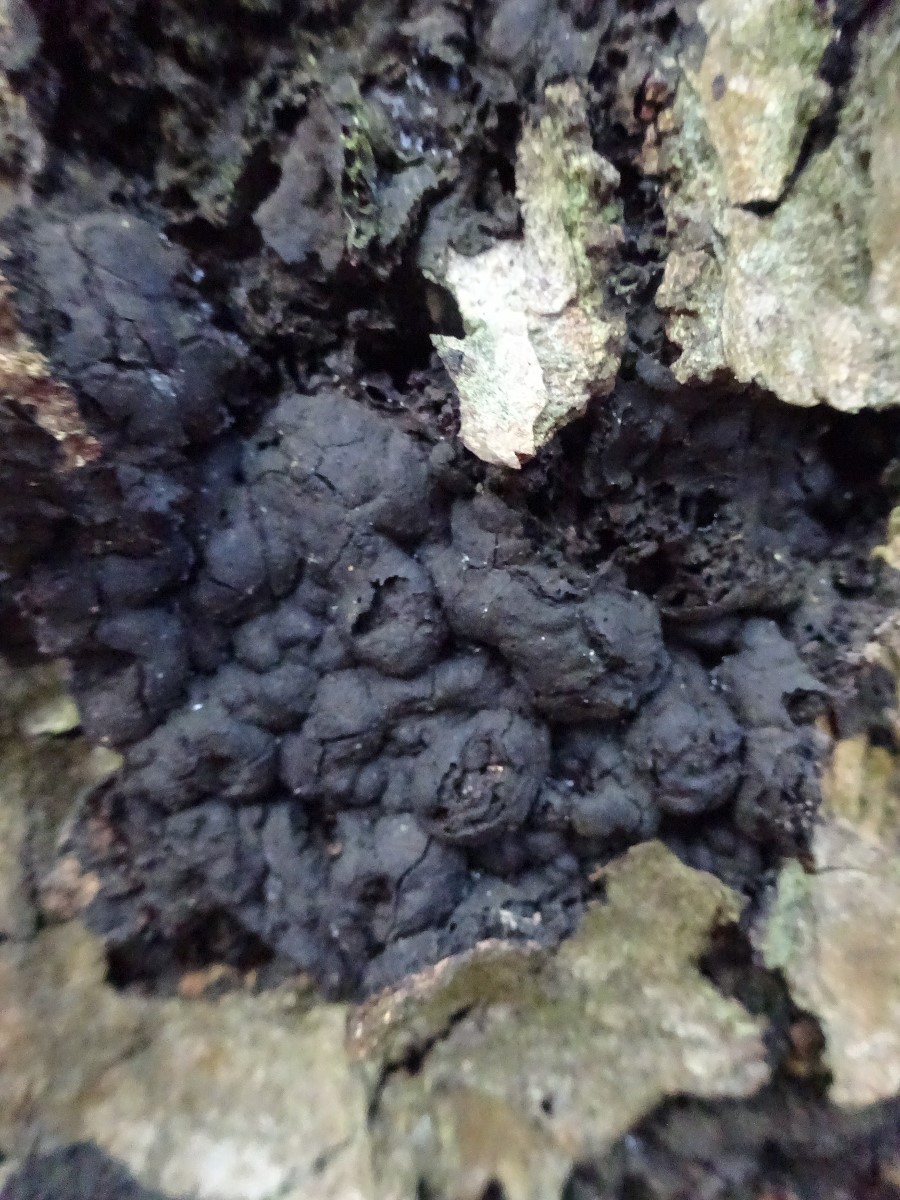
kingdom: Fungi
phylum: Ascomycota
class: Sordariomycetes
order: Xylariales
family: Xylariaceae
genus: Kretzschmaria
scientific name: Kretzschmaria deusta
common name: stor kulsvamp
